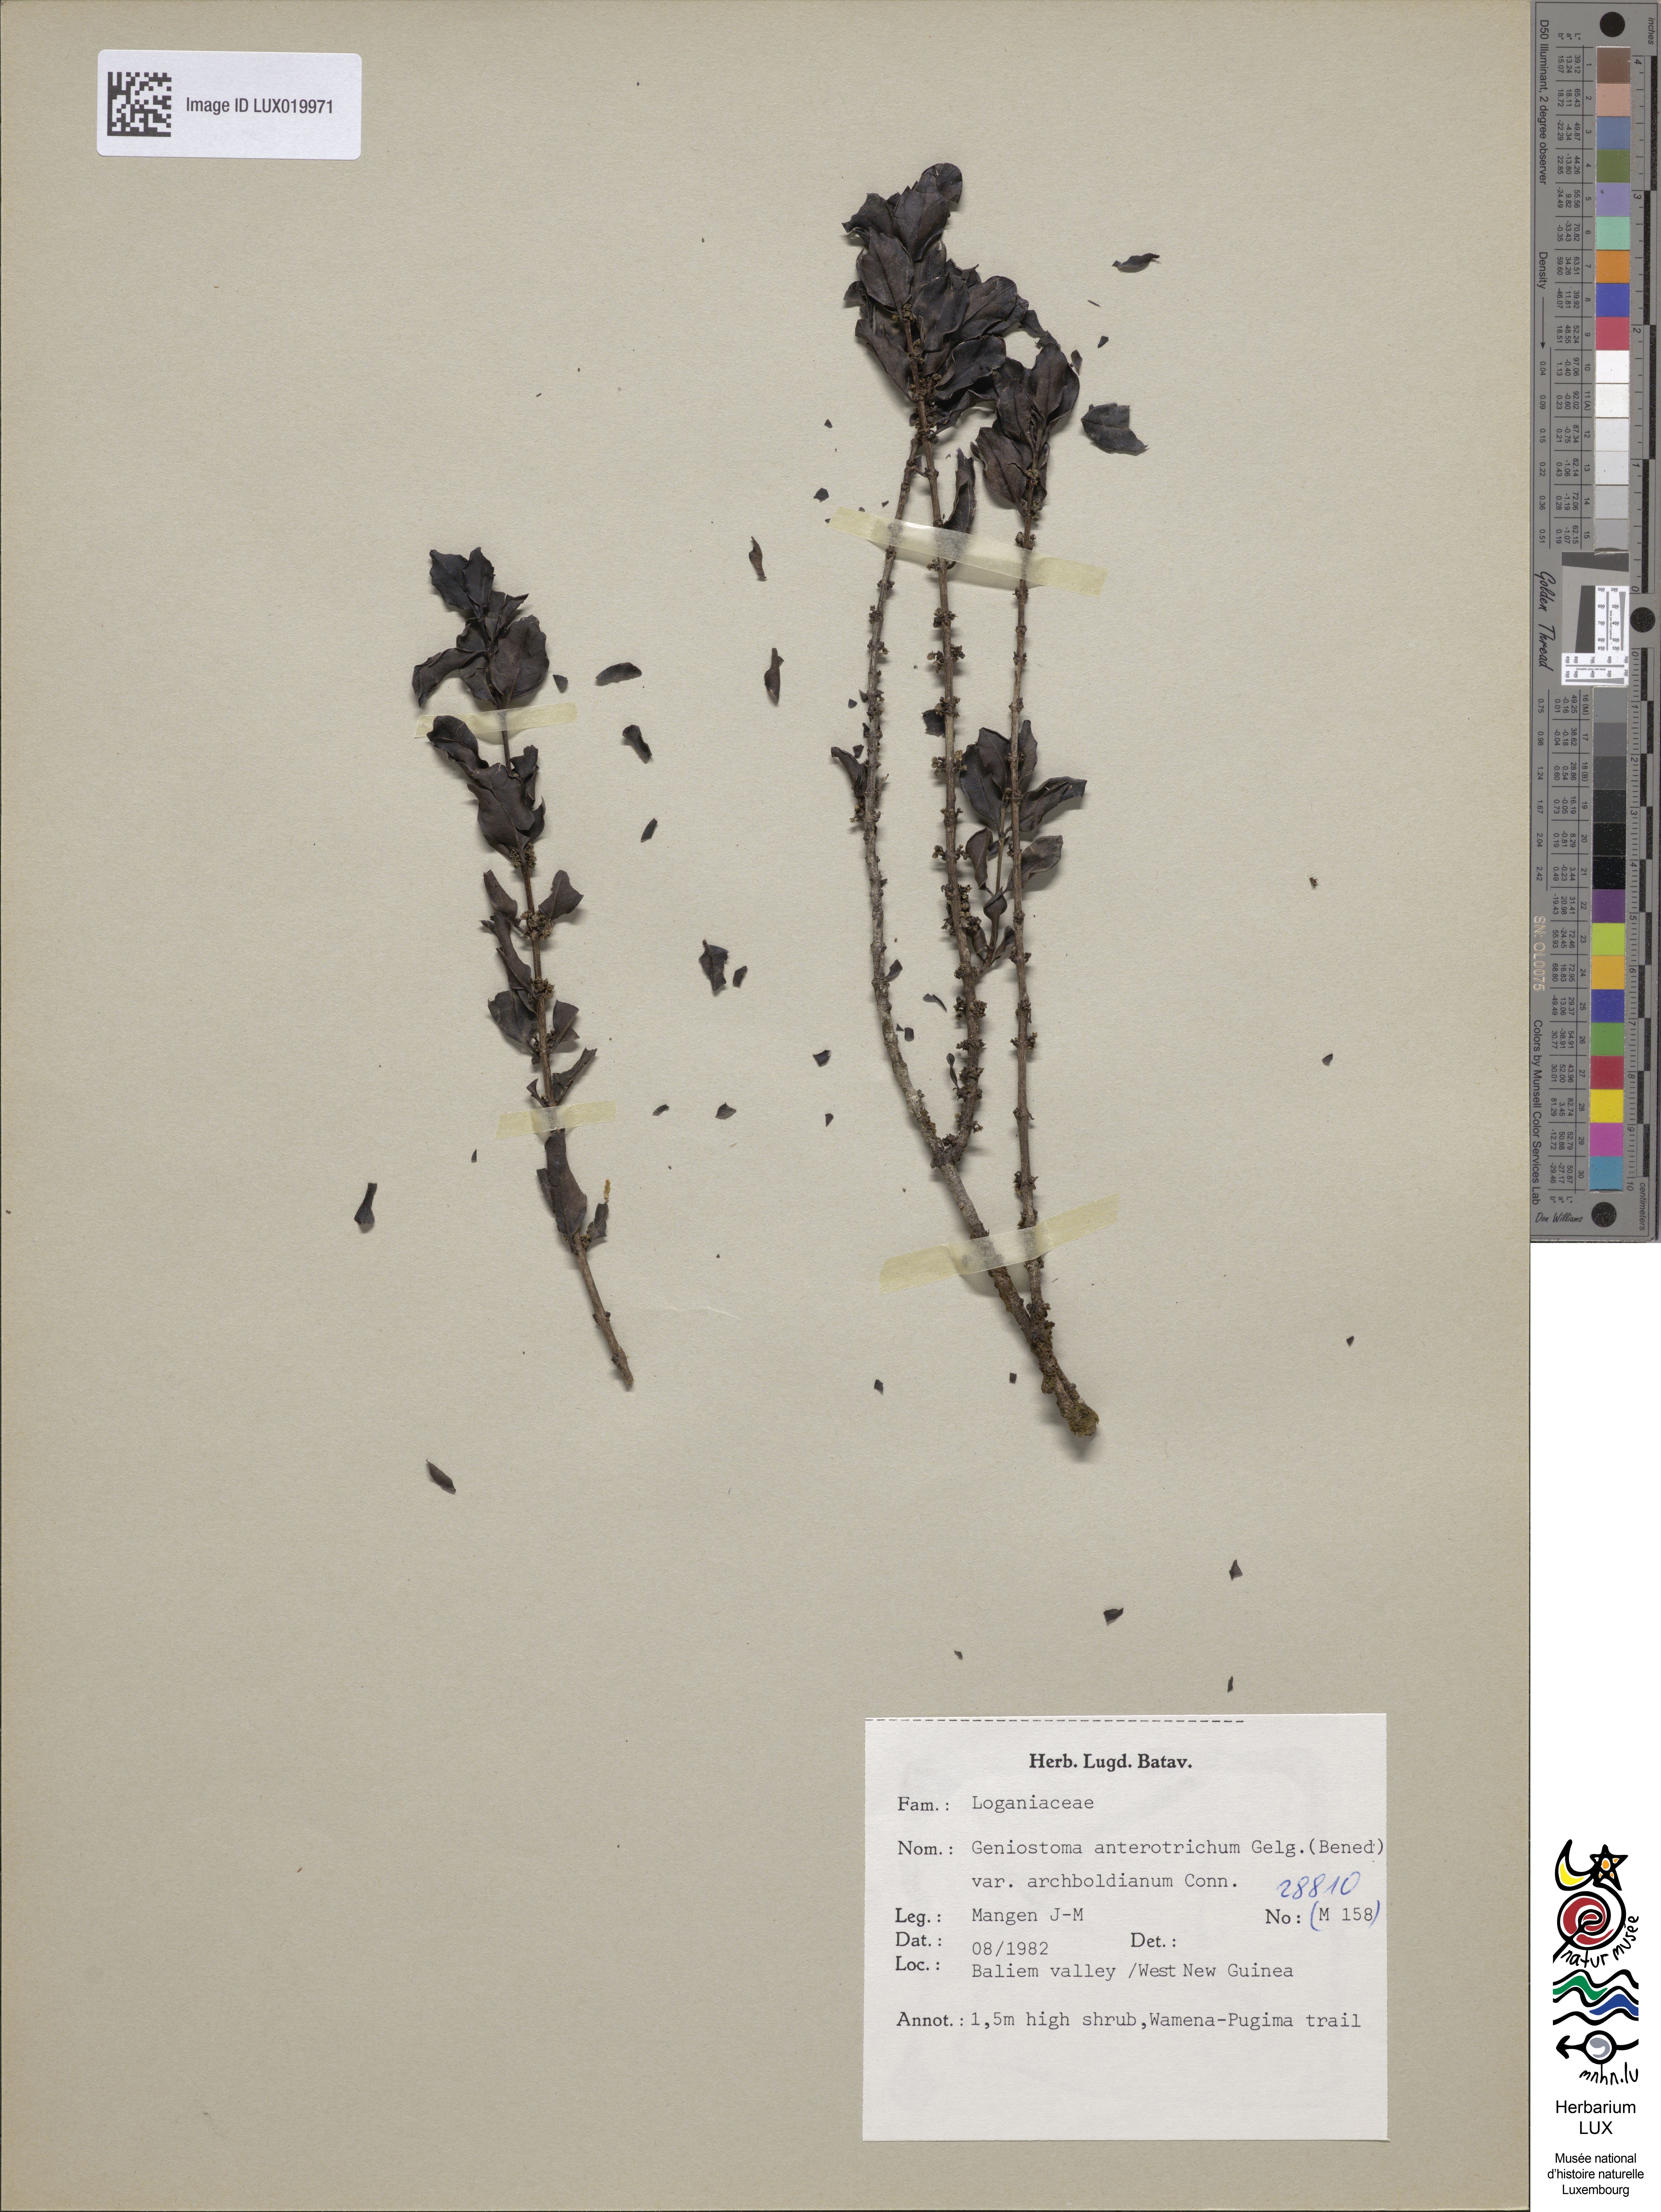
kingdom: Plantae
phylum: Tracheophyta
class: Magnoliopsida
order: Gentianales
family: Loganiaceae
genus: Geniostoma
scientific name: Geniostoma
